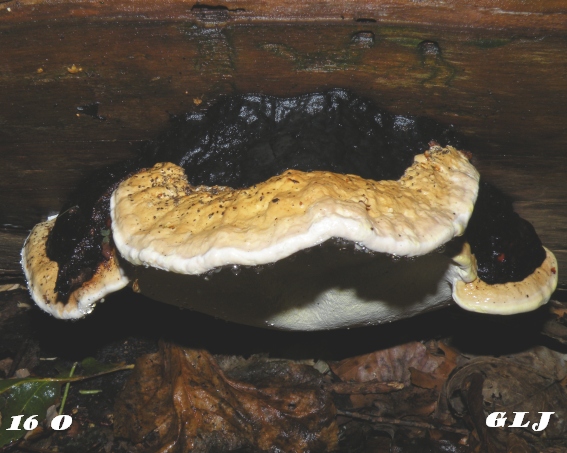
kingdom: Fungi
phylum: Basidiomycota
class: Agaricomycetes
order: Polyporales
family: Fomitopsidaceae
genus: Fomitopsis
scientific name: Fomitopsis pinicola
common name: randbæltet hovporesvamp
